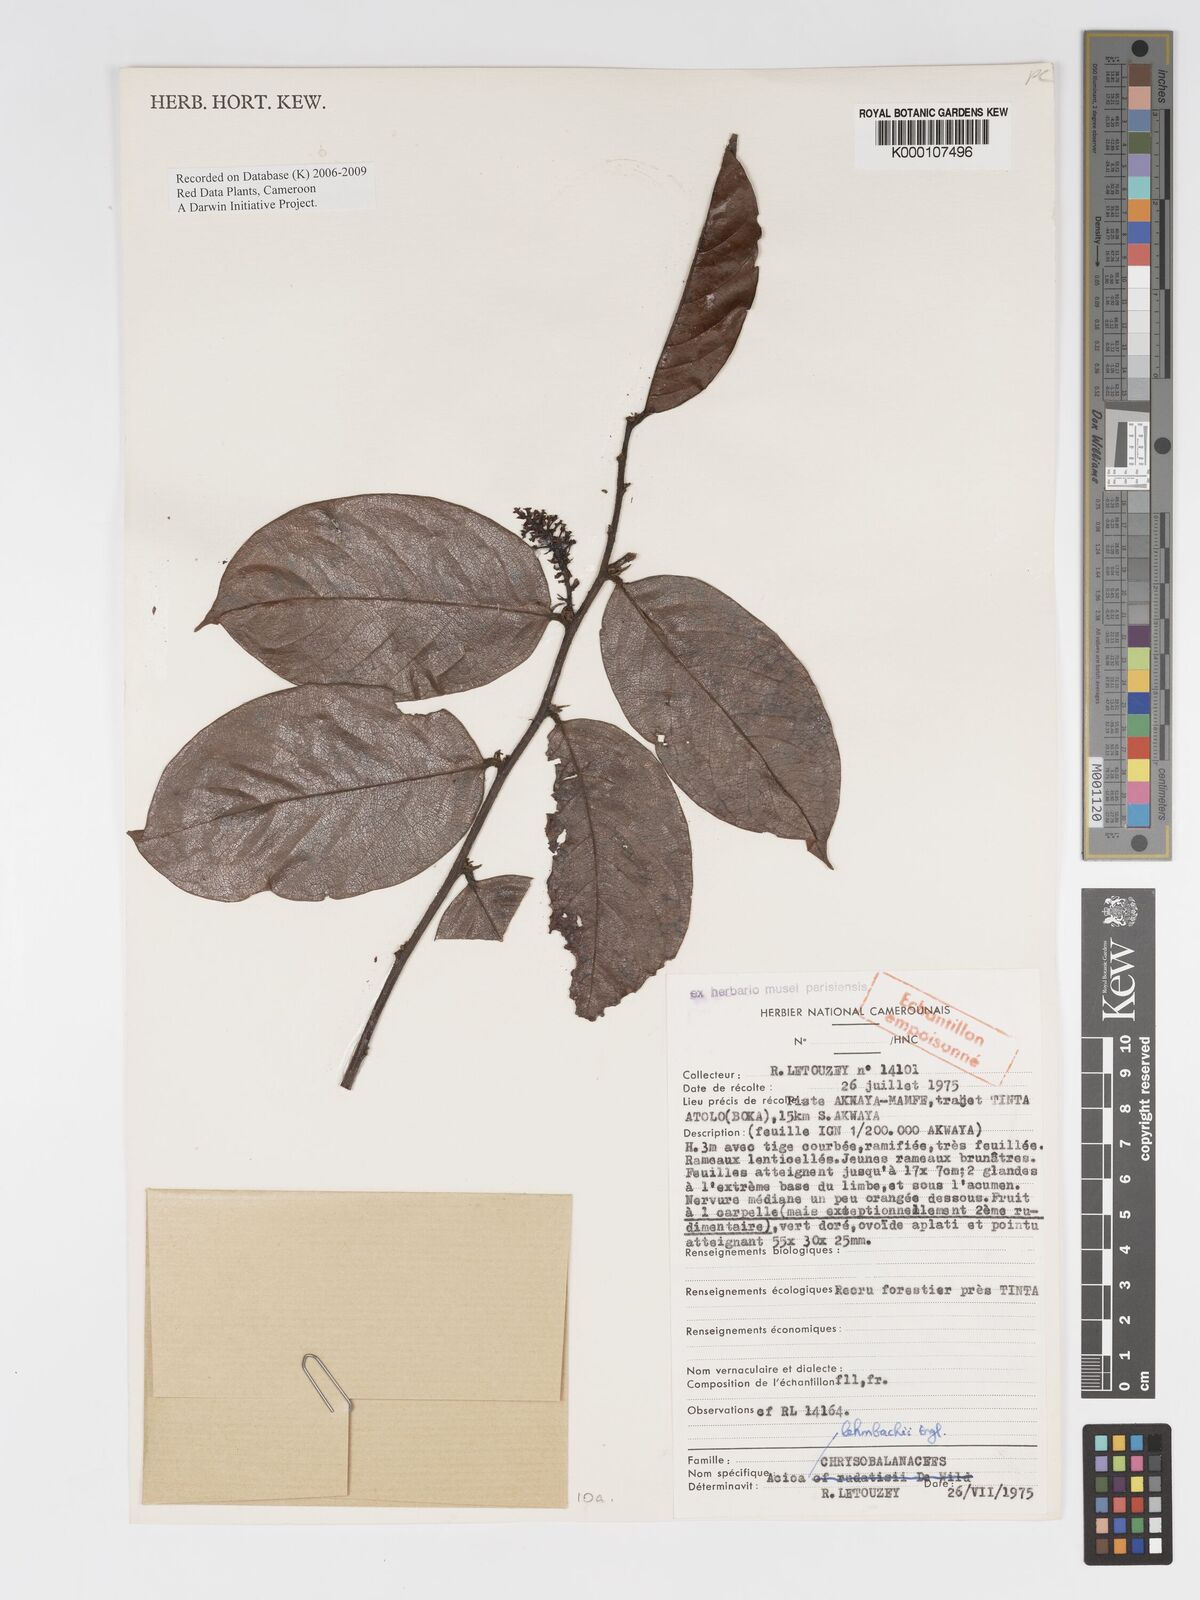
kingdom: Plantae
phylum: Tracheophyta
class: Magnoliopsida
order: Malpighiales
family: Chrysobalanaceae
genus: Dactyladenia
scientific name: Dactyladenia lehmbachii
